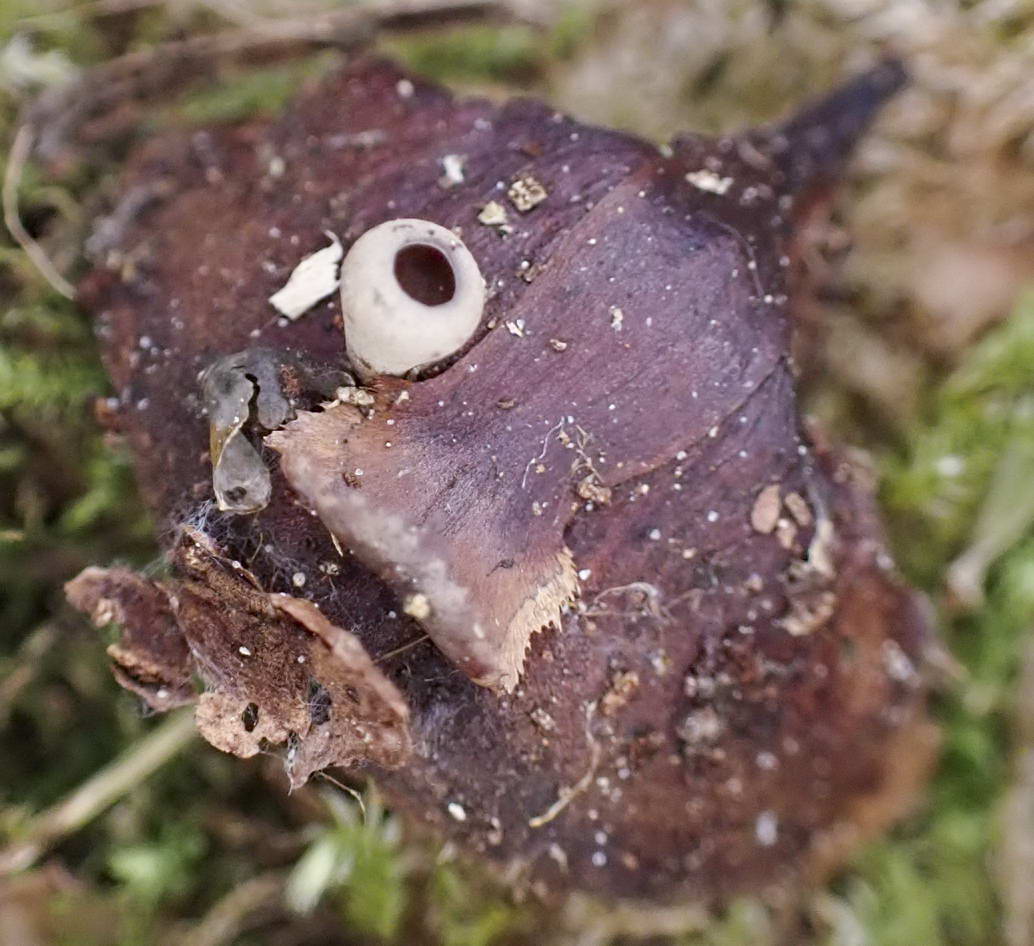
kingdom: Fungi
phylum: Ascomycota
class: Leotiomycetes
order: Helotiales
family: Sclerotiniaceae
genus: Ciboria
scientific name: Ciboria rufofusca
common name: kogleskæl-knoldskive
